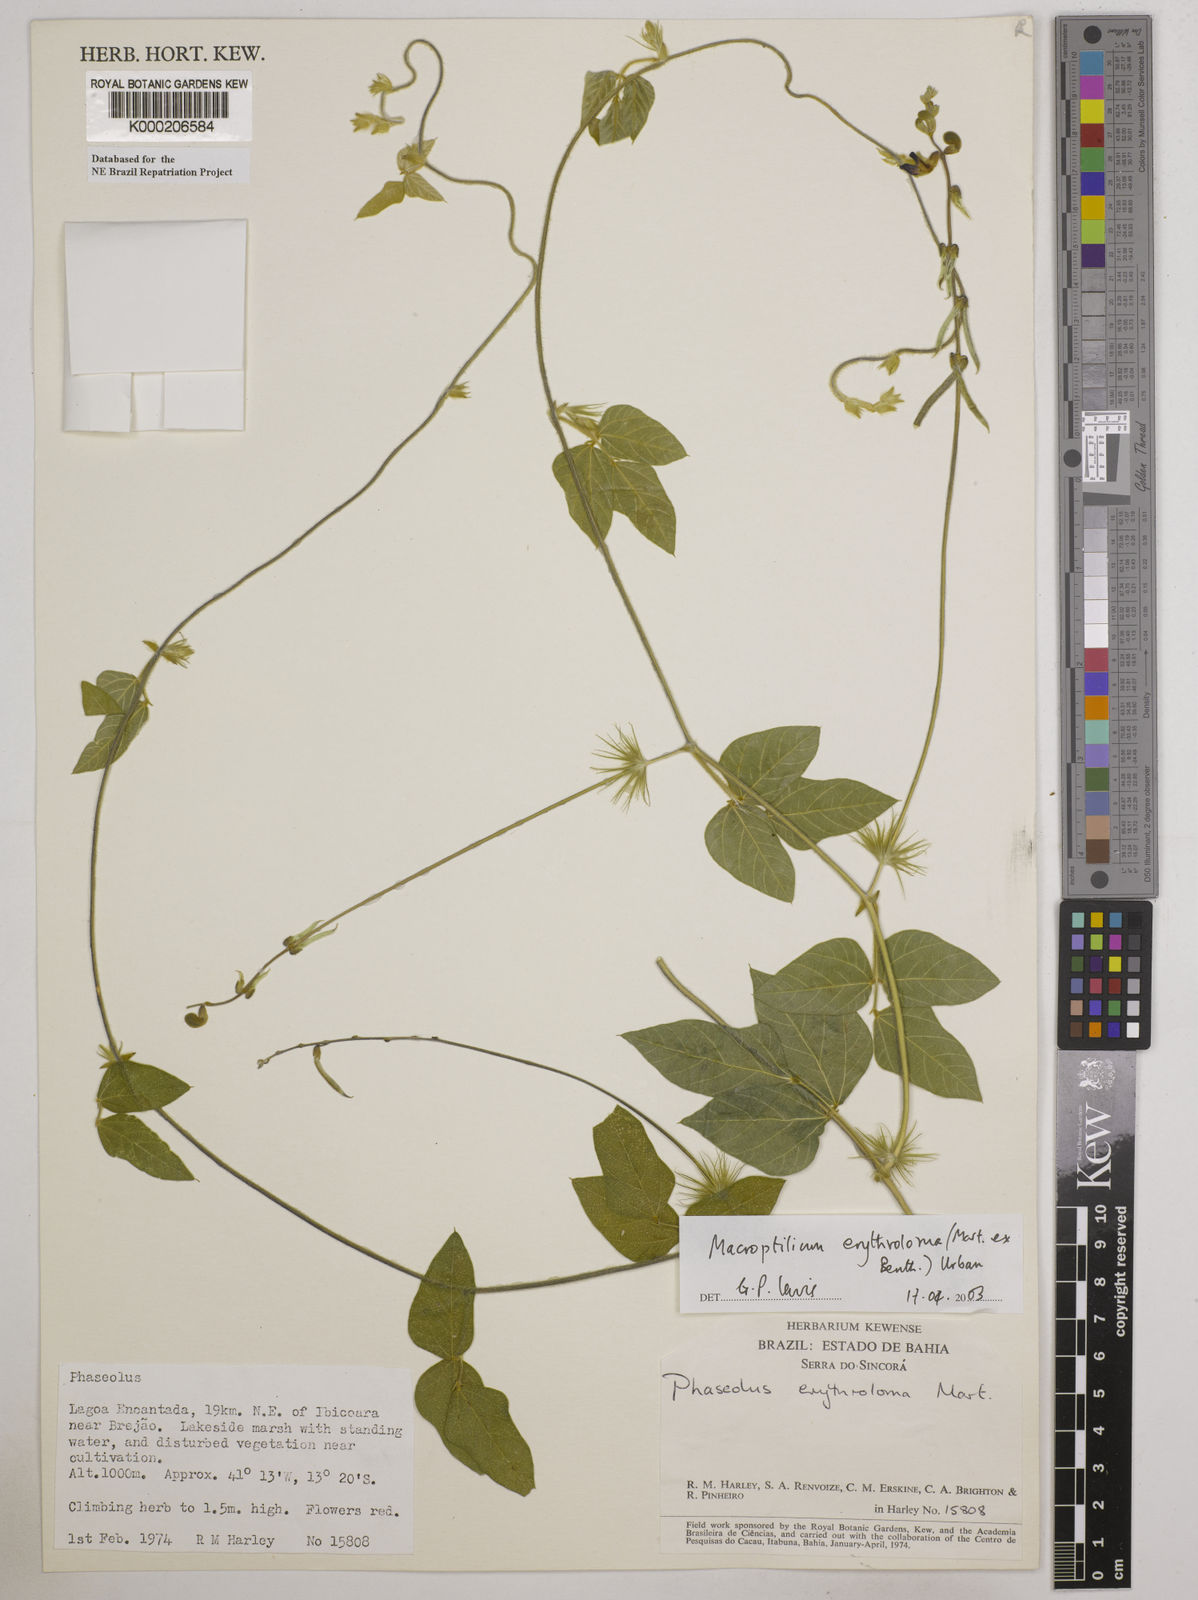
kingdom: Plantae
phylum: Tracheophyta
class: Magnoliopsida
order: Fabales
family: Fabaceae
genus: Macroptilium
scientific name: Macroptilium erythroloma
